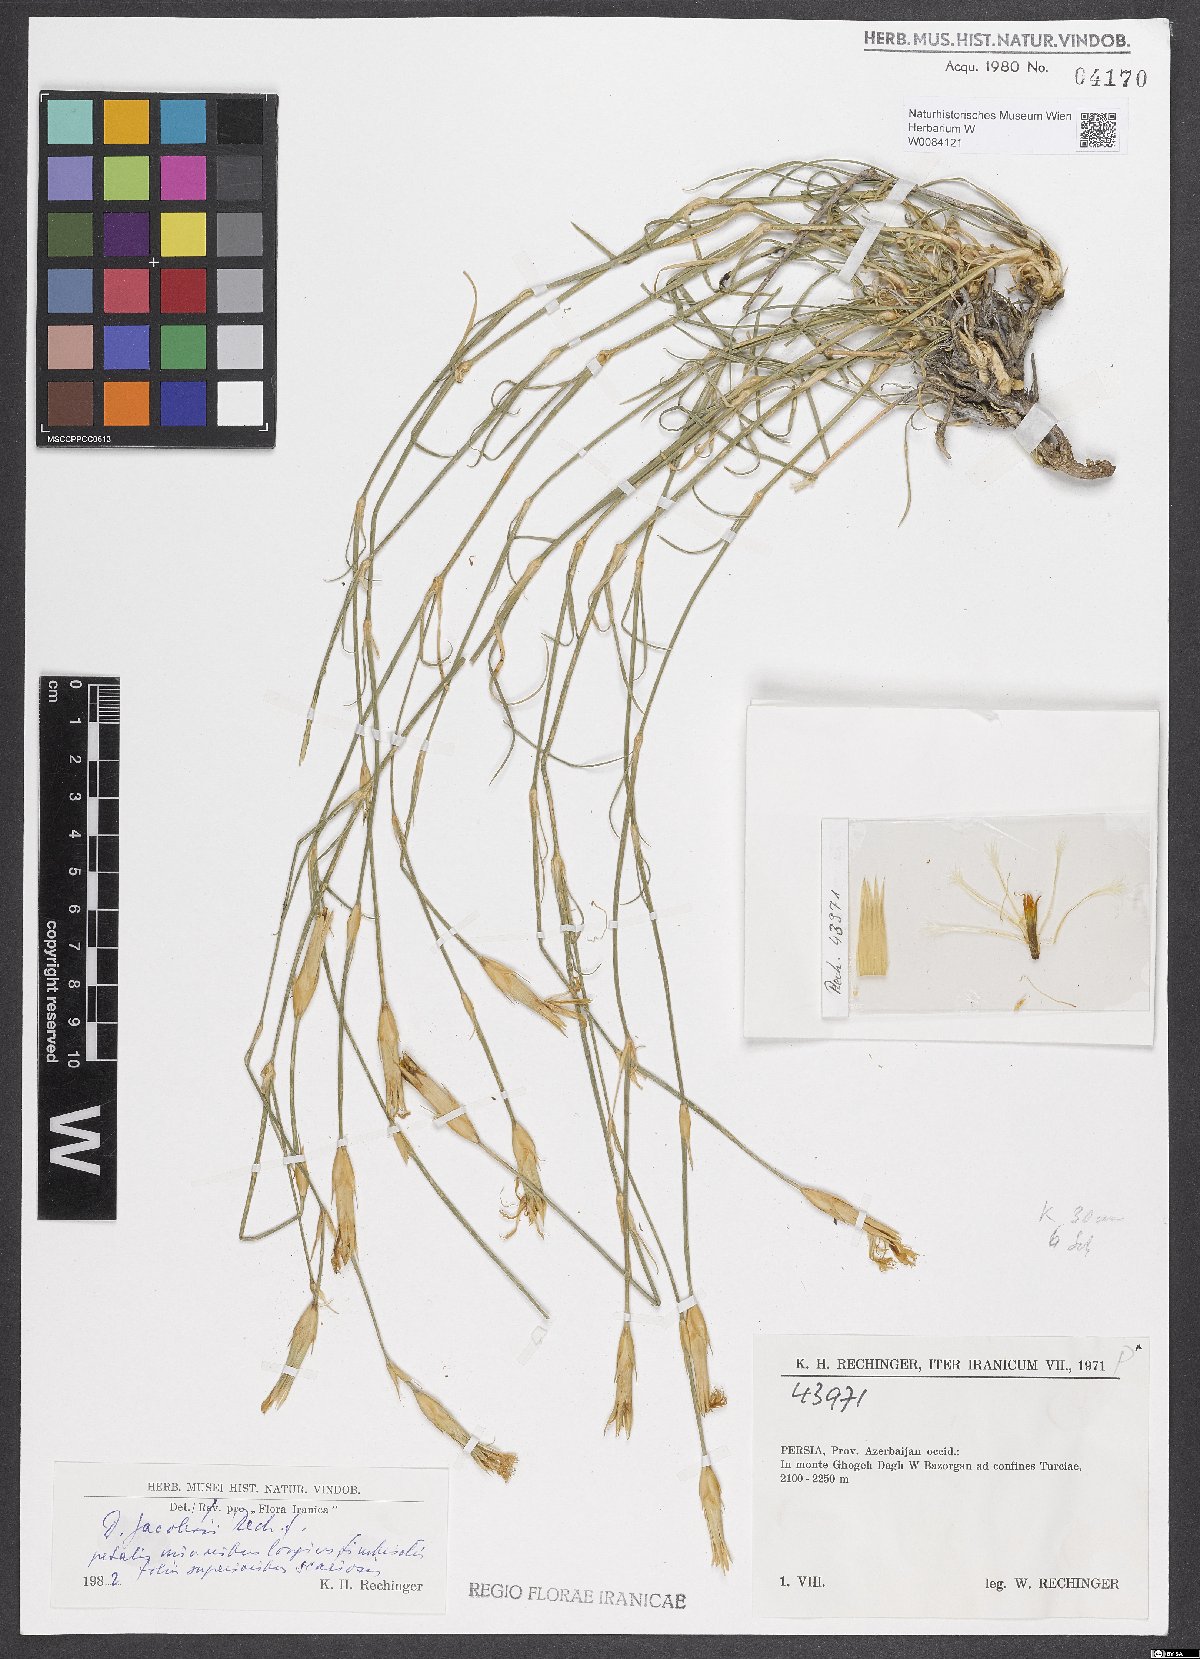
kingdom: Plantae
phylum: Tracheophyta
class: Magnoliopsida
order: Caryophyllales
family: Caryophyllaceae
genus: Dianthus
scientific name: Dianthus jacobsii
